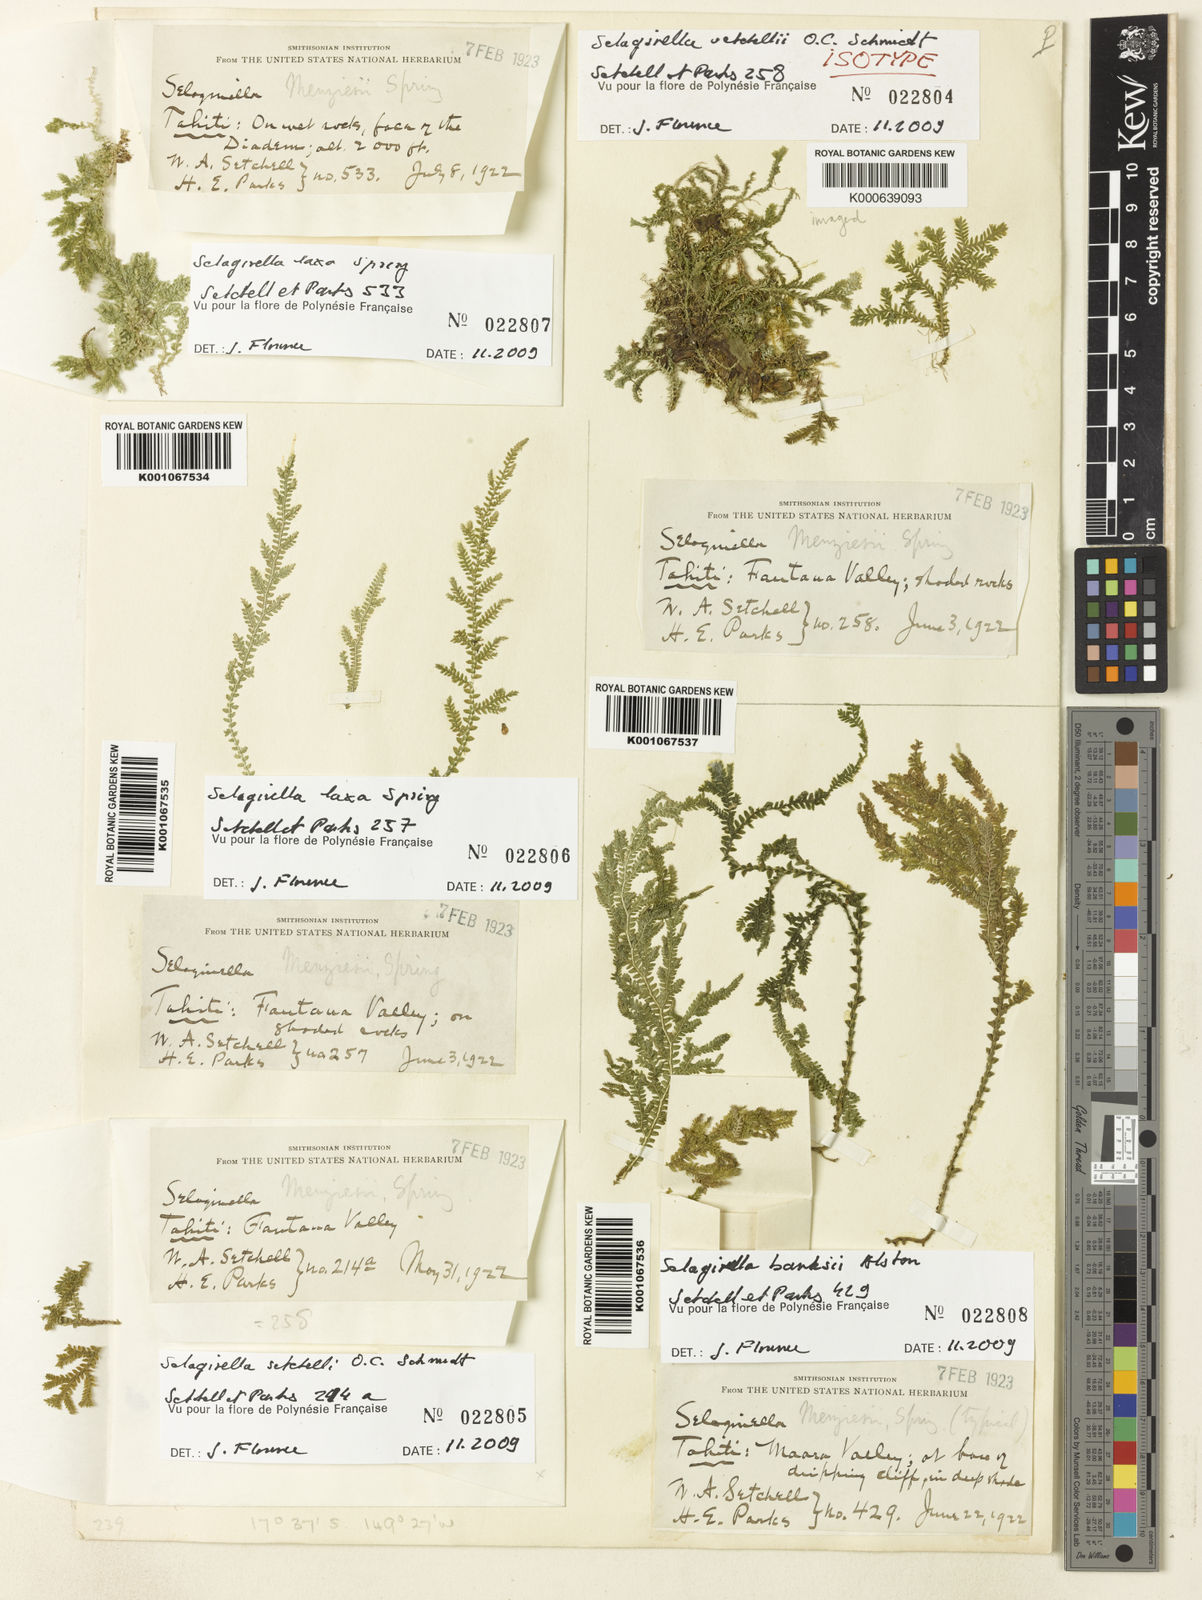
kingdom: Plantae
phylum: Tracheophyta
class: Lycopodiopsida
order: Selaginellales
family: Selaginellaceae
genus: Selaginella
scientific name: Selaginella setchellii
